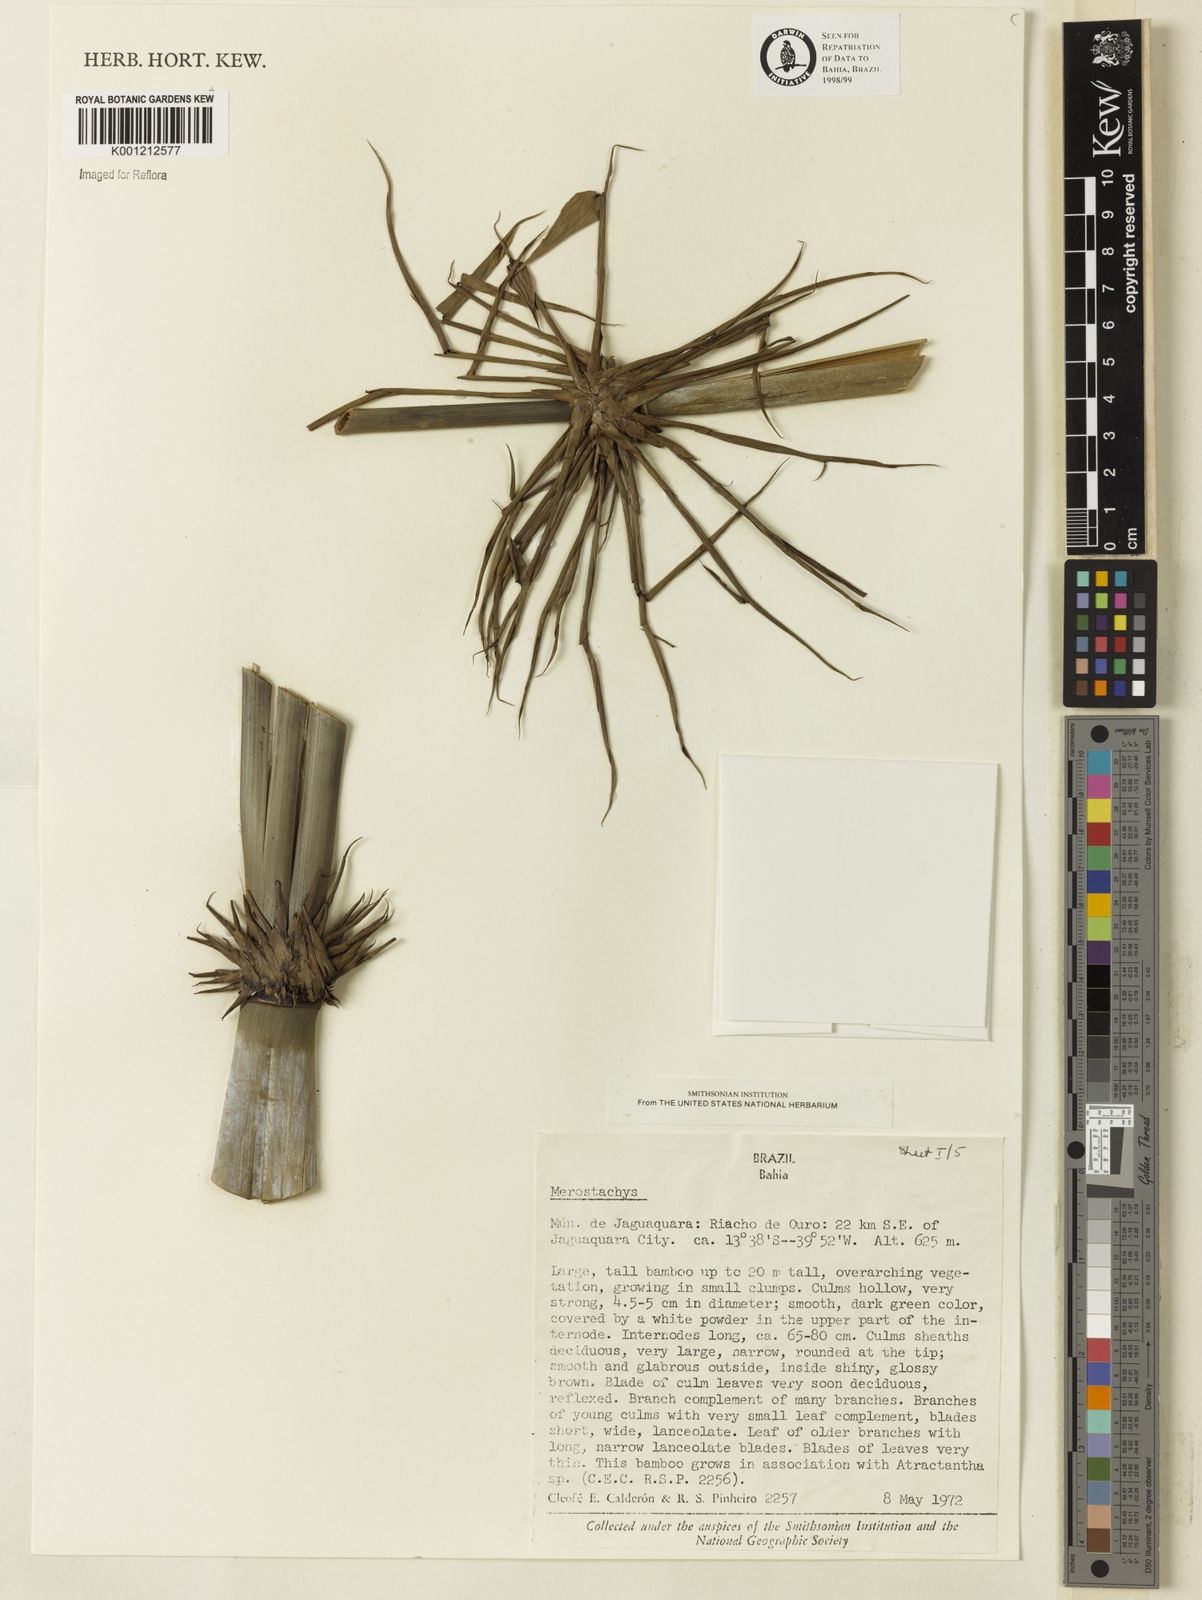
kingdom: Plantae
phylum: Tracheophyta
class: Liliopsida
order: Poales
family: Poaceae
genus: Merostachys
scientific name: Merostachys
